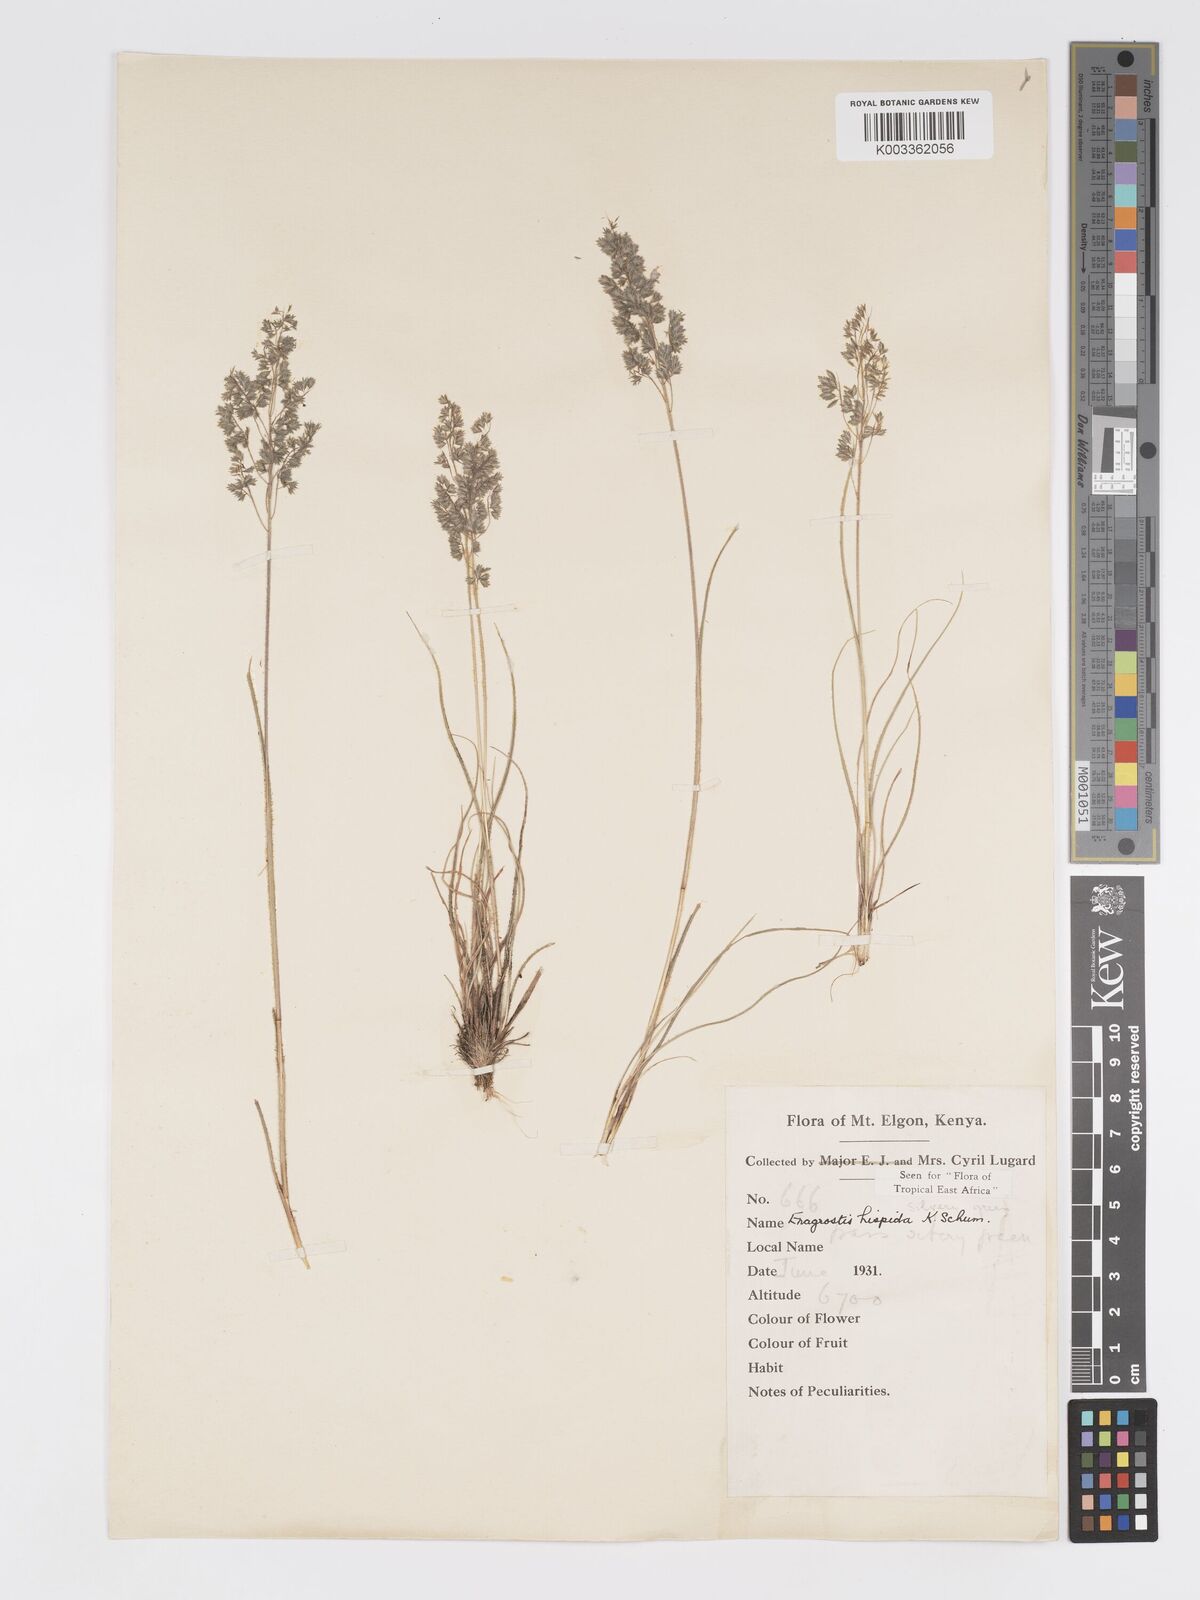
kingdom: Plantae
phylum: Tracheophyta
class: Liliopsida
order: Poales
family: Poaceae
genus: Eragrostis
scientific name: Eragrostis hispida
